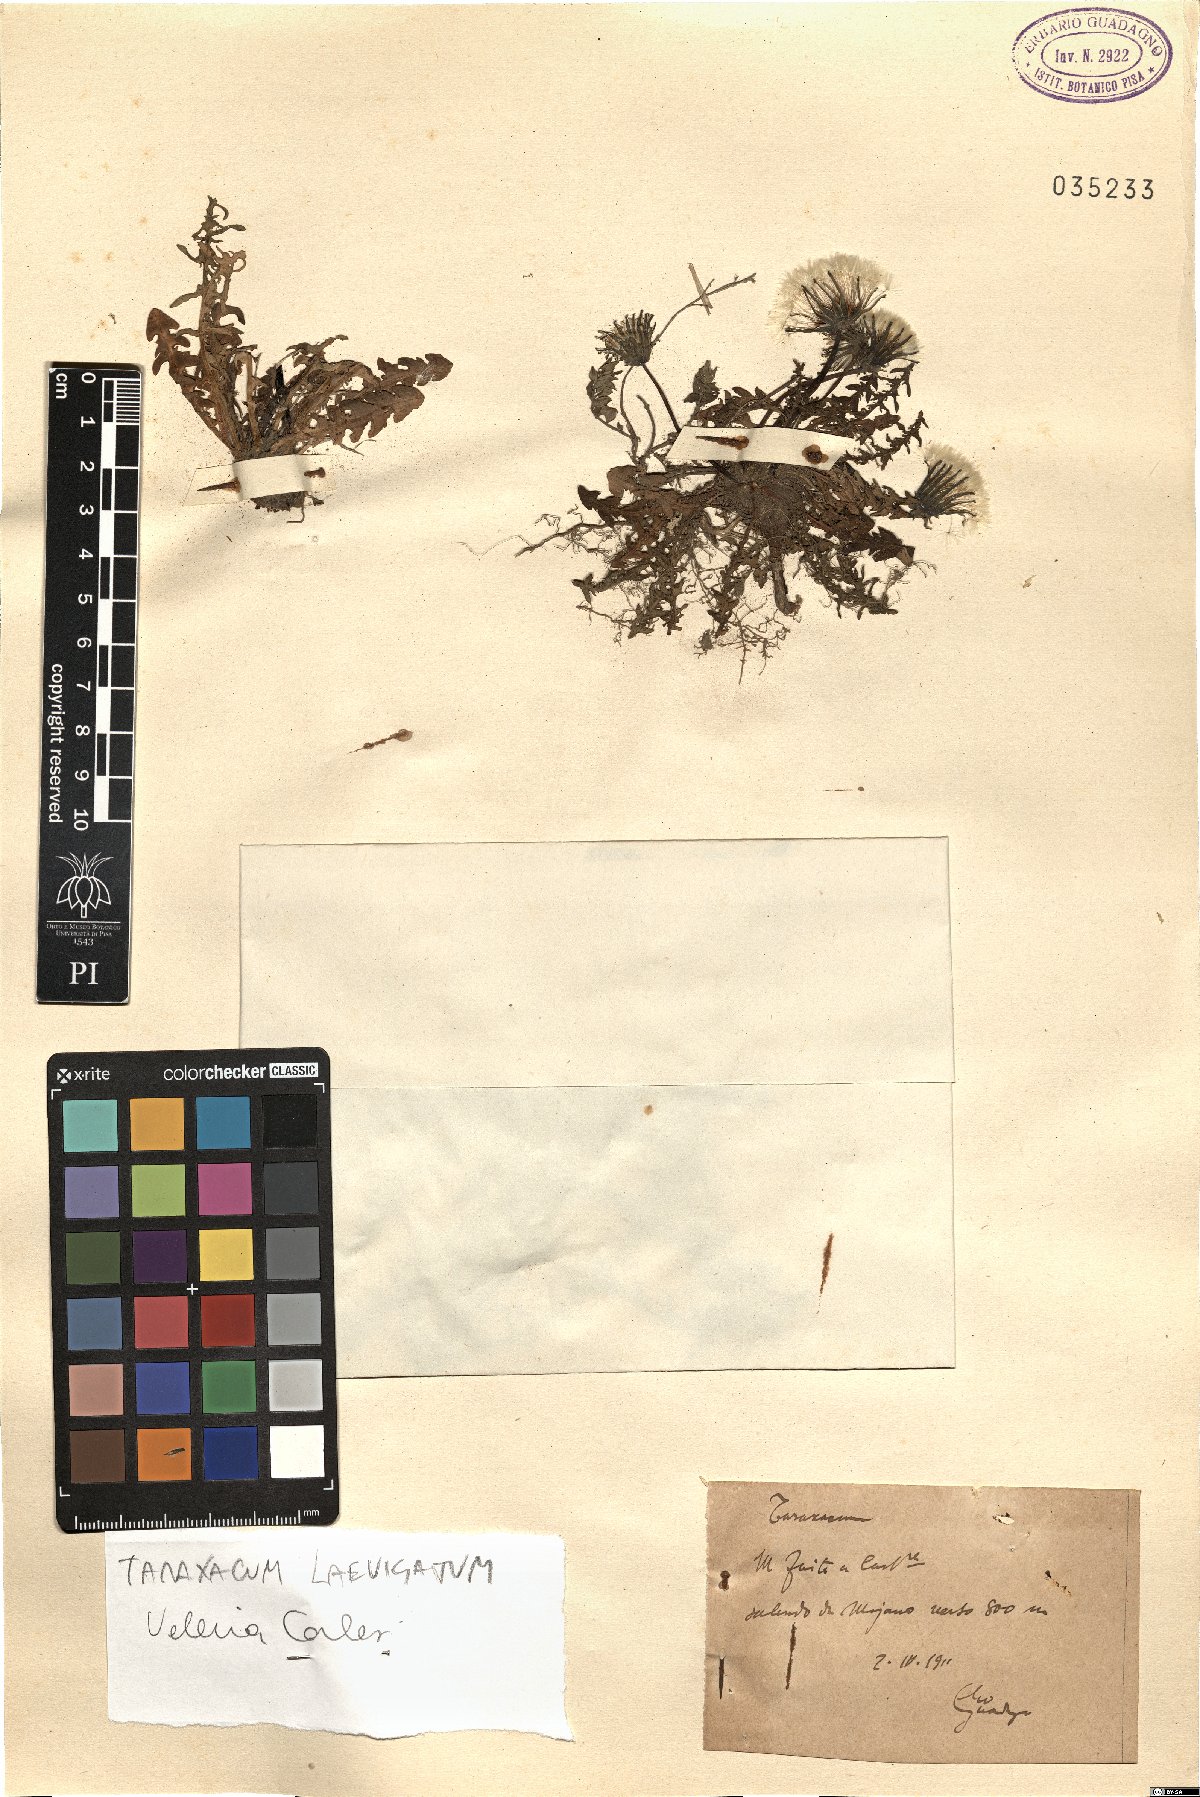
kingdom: Plantae
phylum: Tracheophyta
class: Magnoliopsida
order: Asterales
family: Asteraceae
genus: Taraxacum
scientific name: Taraxacum erythrospermum
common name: Rock dandelion
